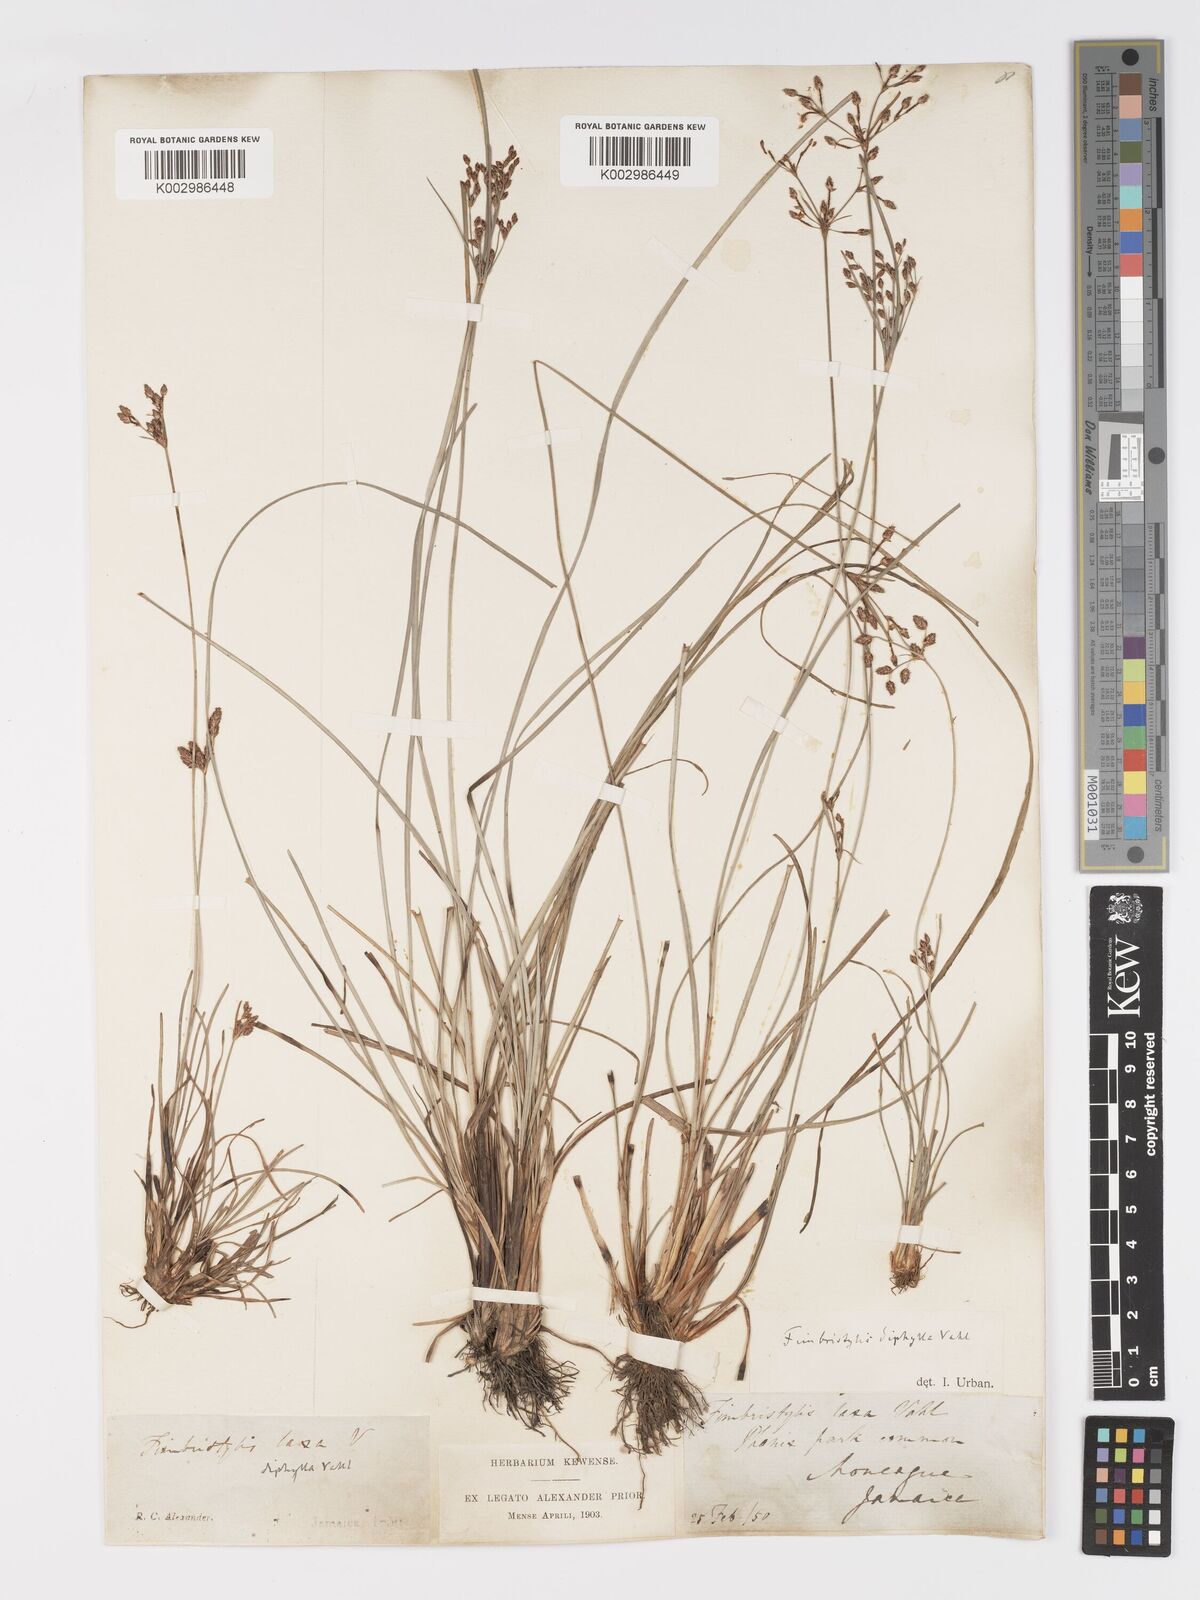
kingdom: Plantae
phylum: Tracheophyta
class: Liliopsida
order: Poales
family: Cyperaceae
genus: Fimbristylis
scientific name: Fimbristylis dichotoma
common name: Forked fimbry
